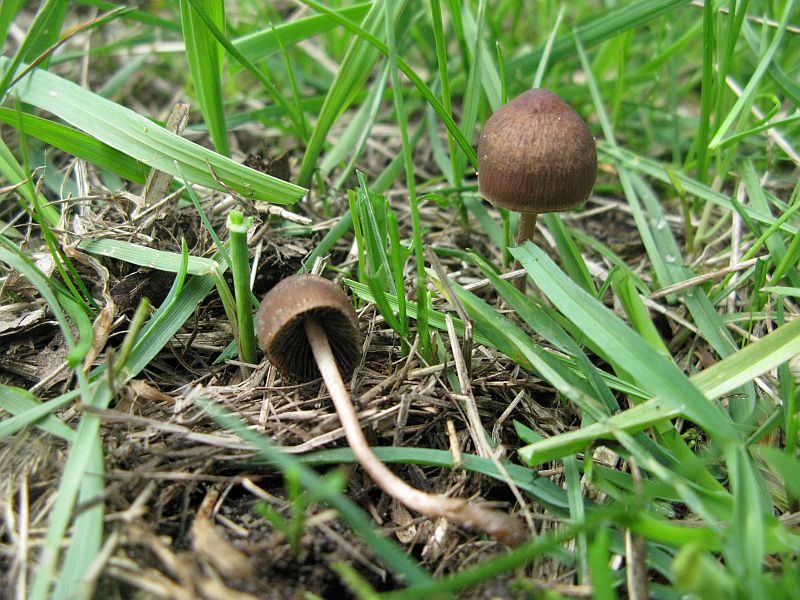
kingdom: Fungi
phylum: Basidiomycota
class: Agaricomycetes
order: Agaricales
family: Bolbitiaceae
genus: Panaeolus
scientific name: Panaeolus fimicola
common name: tidlig glanshat
